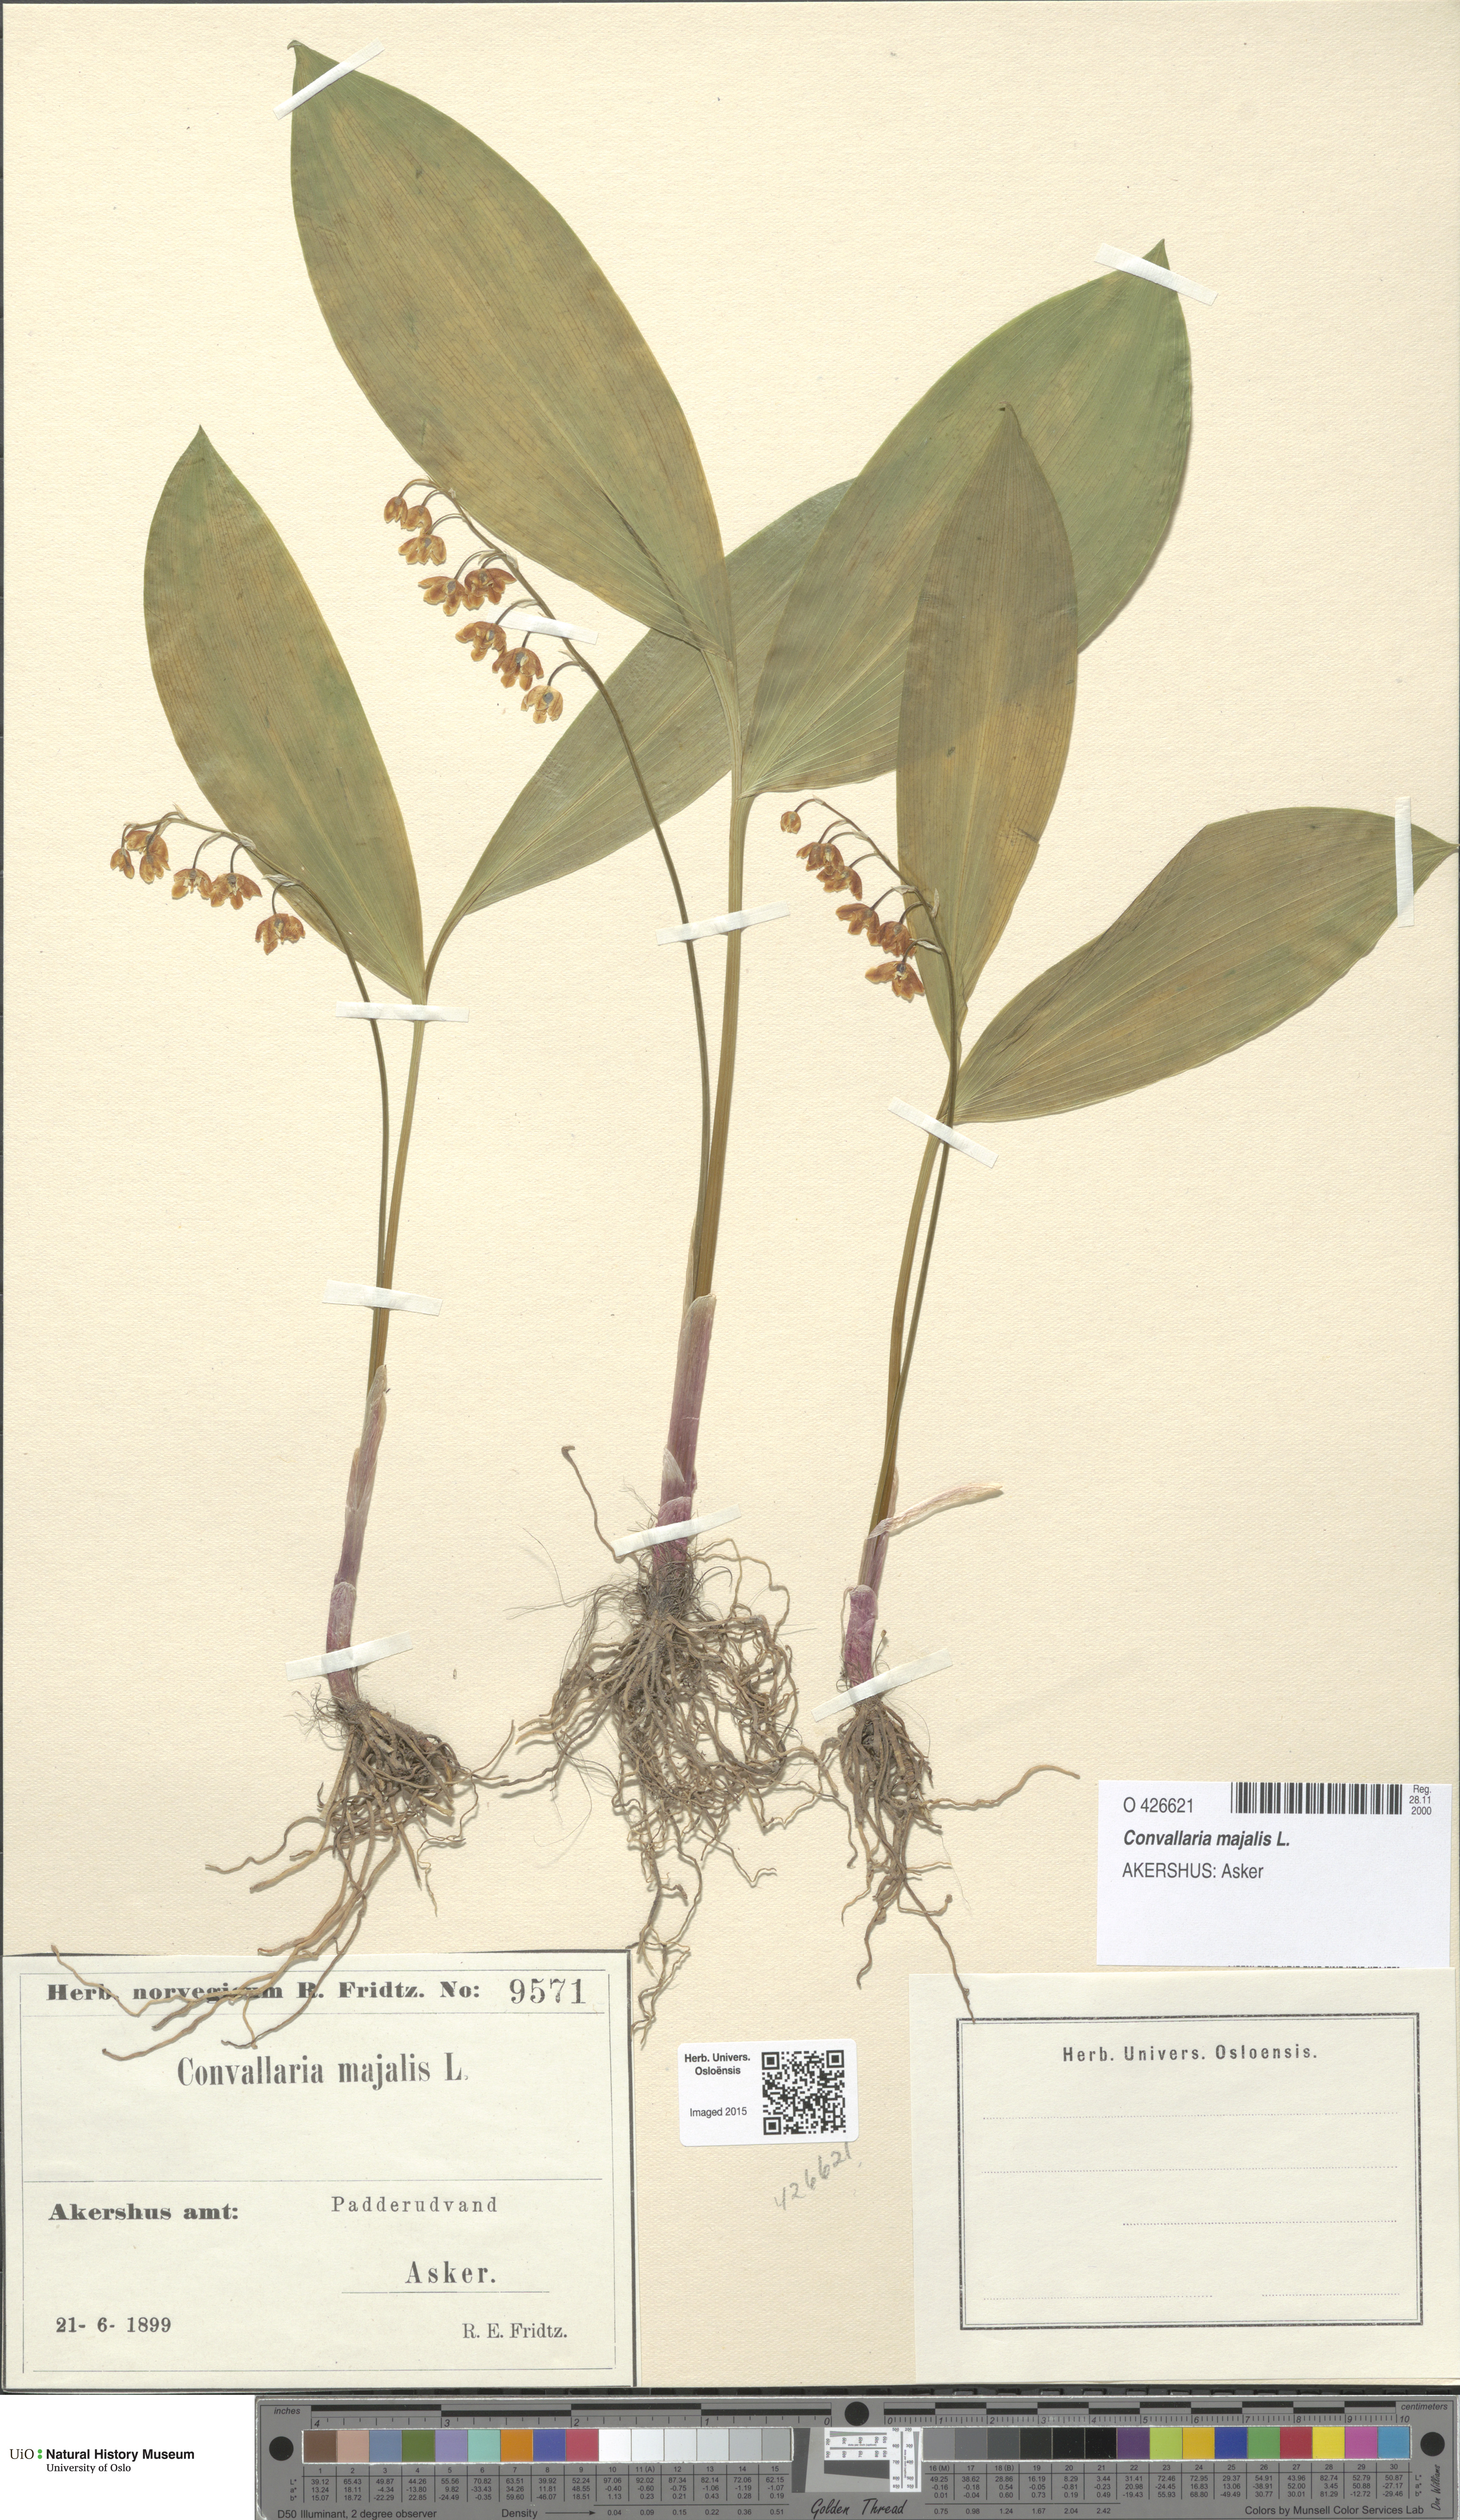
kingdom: Plantae
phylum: Tracheophyta
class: Liliopsida
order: Asparagales
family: Asparagaceae
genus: Convallaria
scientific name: Convallaria majalis
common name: Lily-of-the-valley
